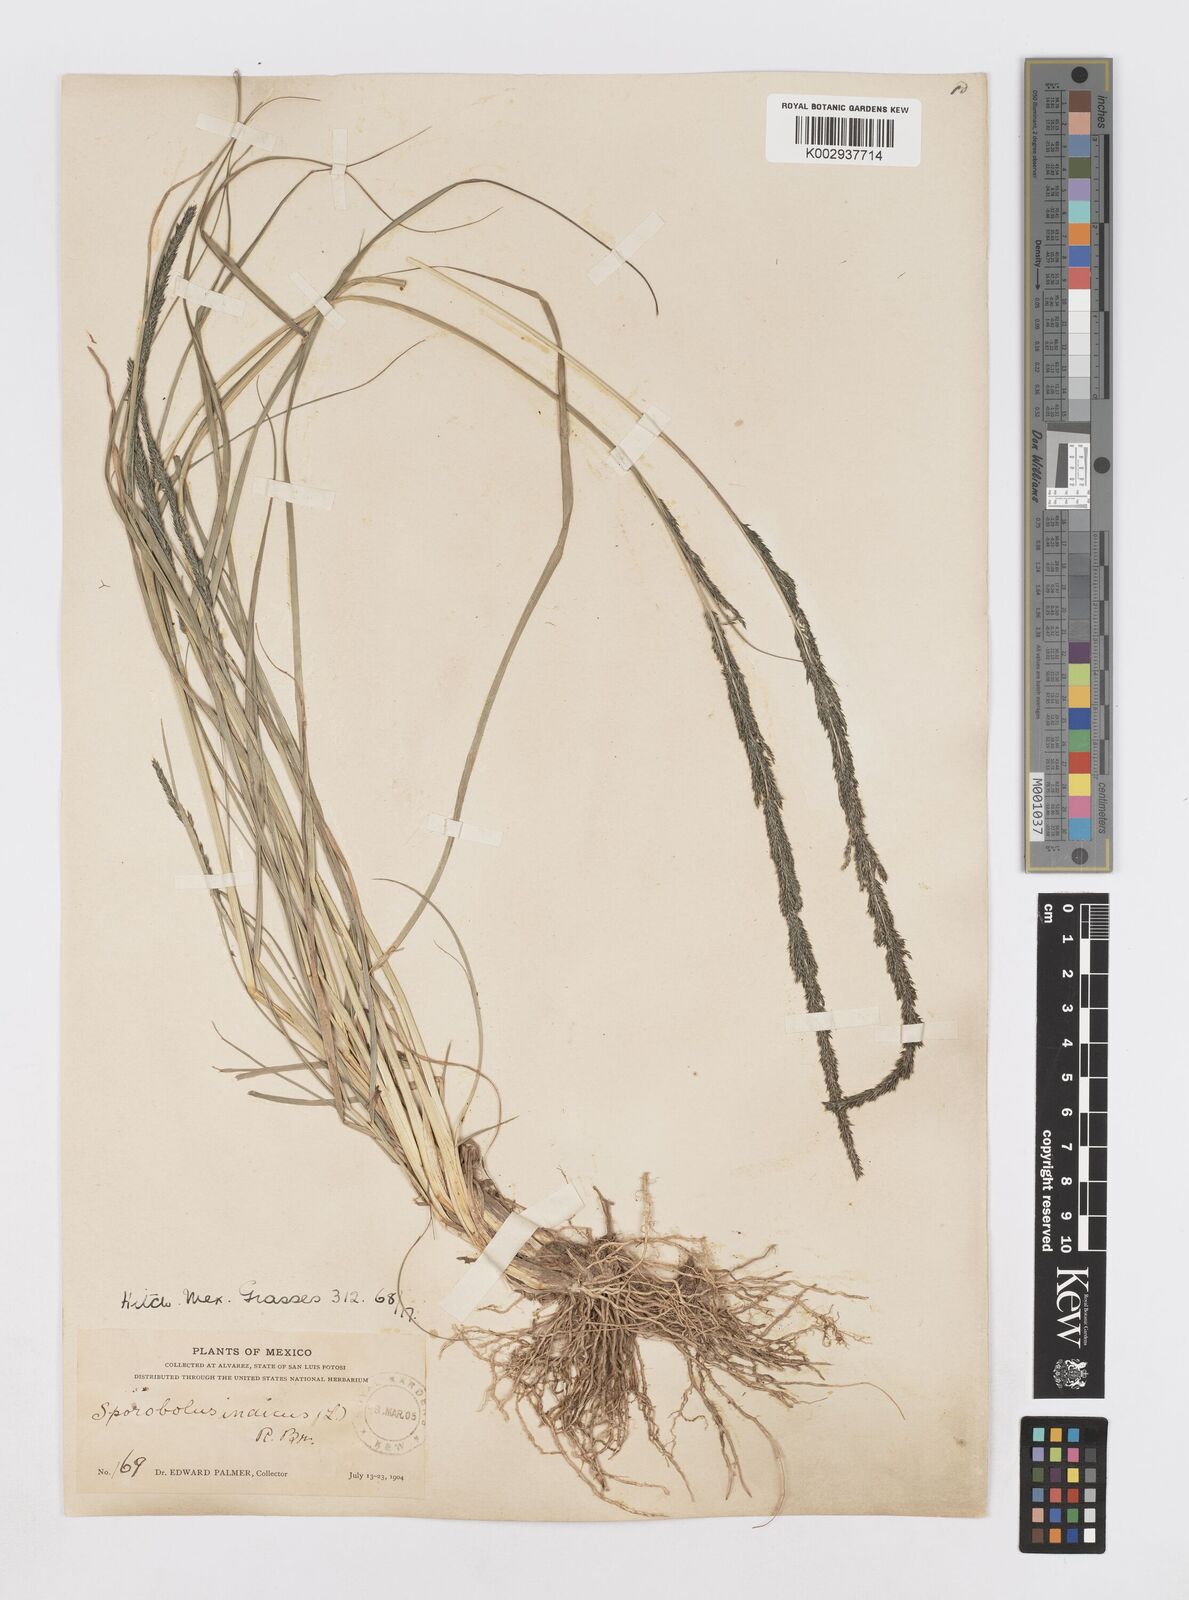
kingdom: Plantae
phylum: Tracheophyta
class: Liliopsida
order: Poales
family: Poaceae
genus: Sporobolus
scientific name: Sporobolus junceus
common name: Lizard grass
